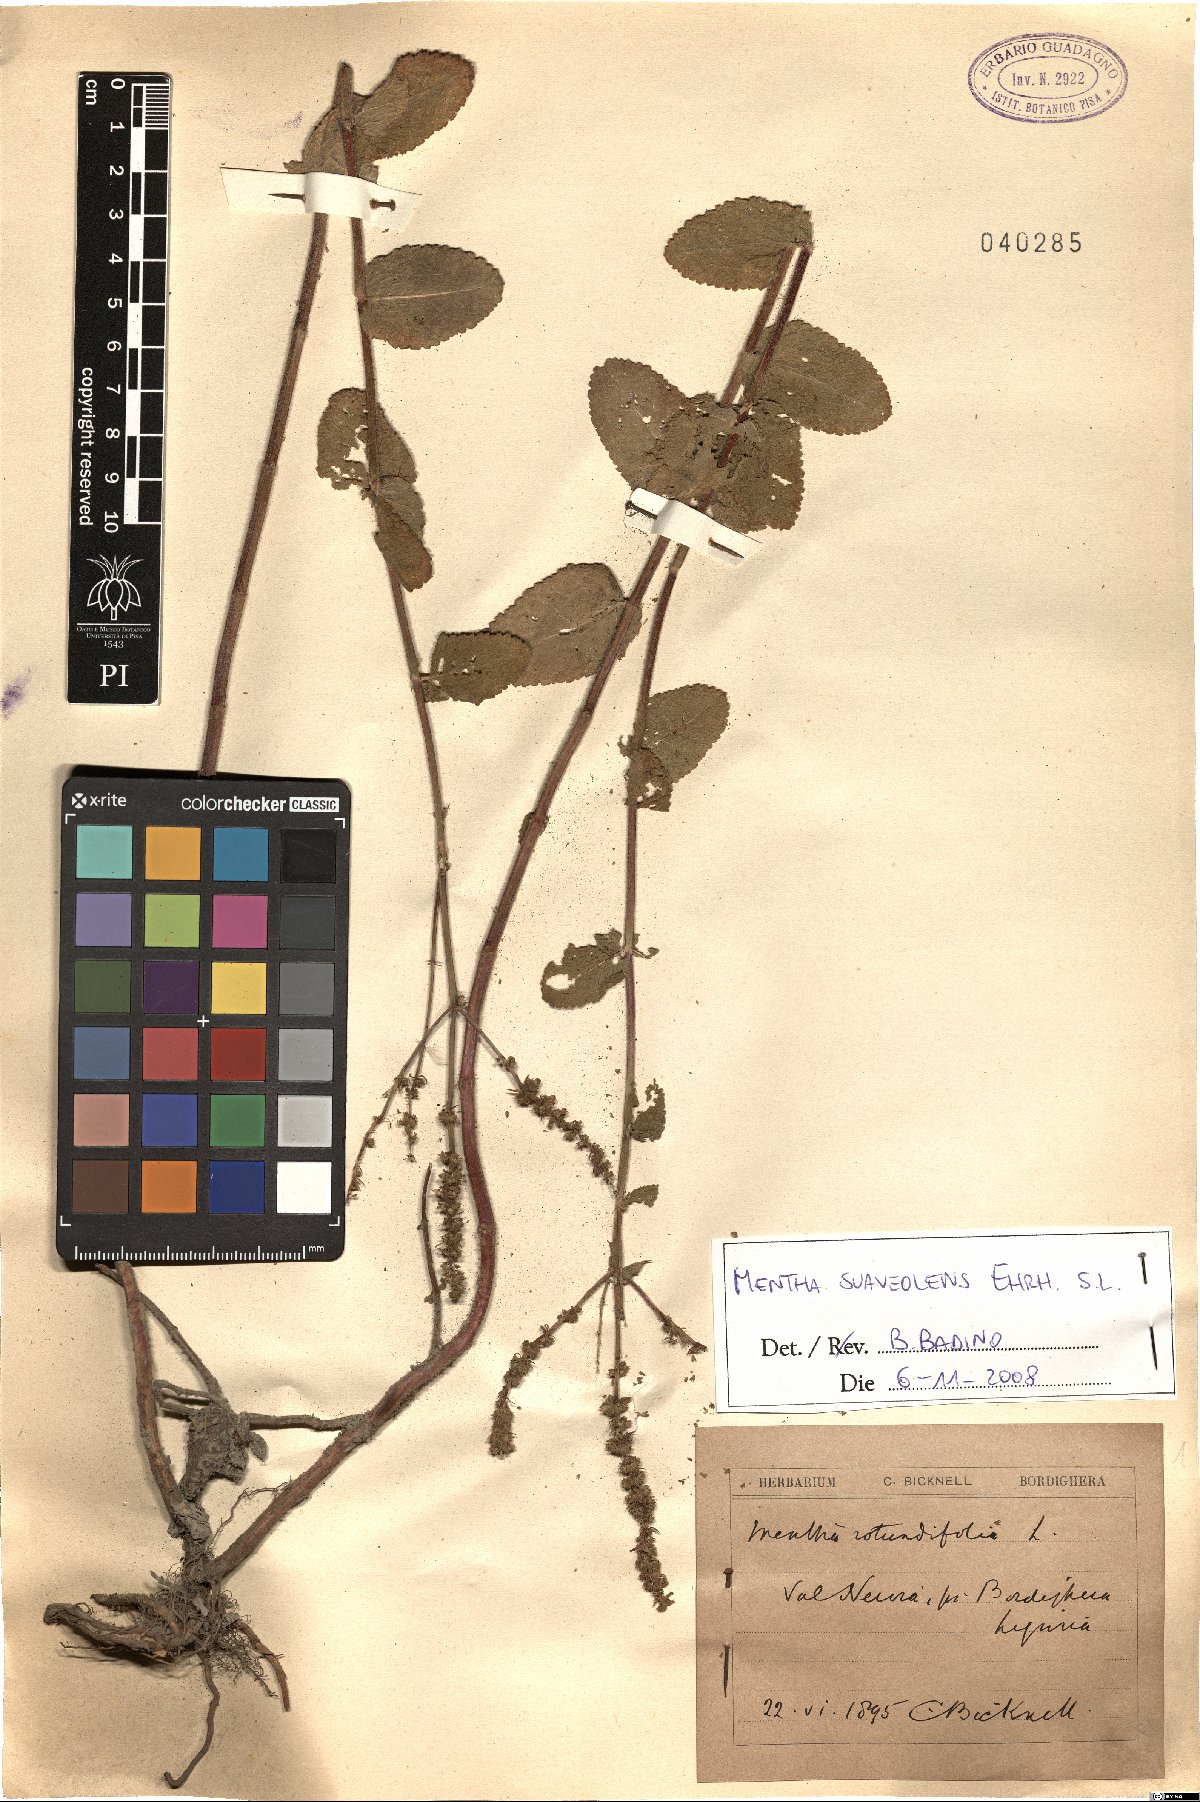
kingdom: Plantae
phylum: Tracheophyta
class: Magnoliopsida
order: Lamiales
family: Lamiaceae
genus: Mentha
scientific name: Mentha suaveolens
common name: Apple mint
